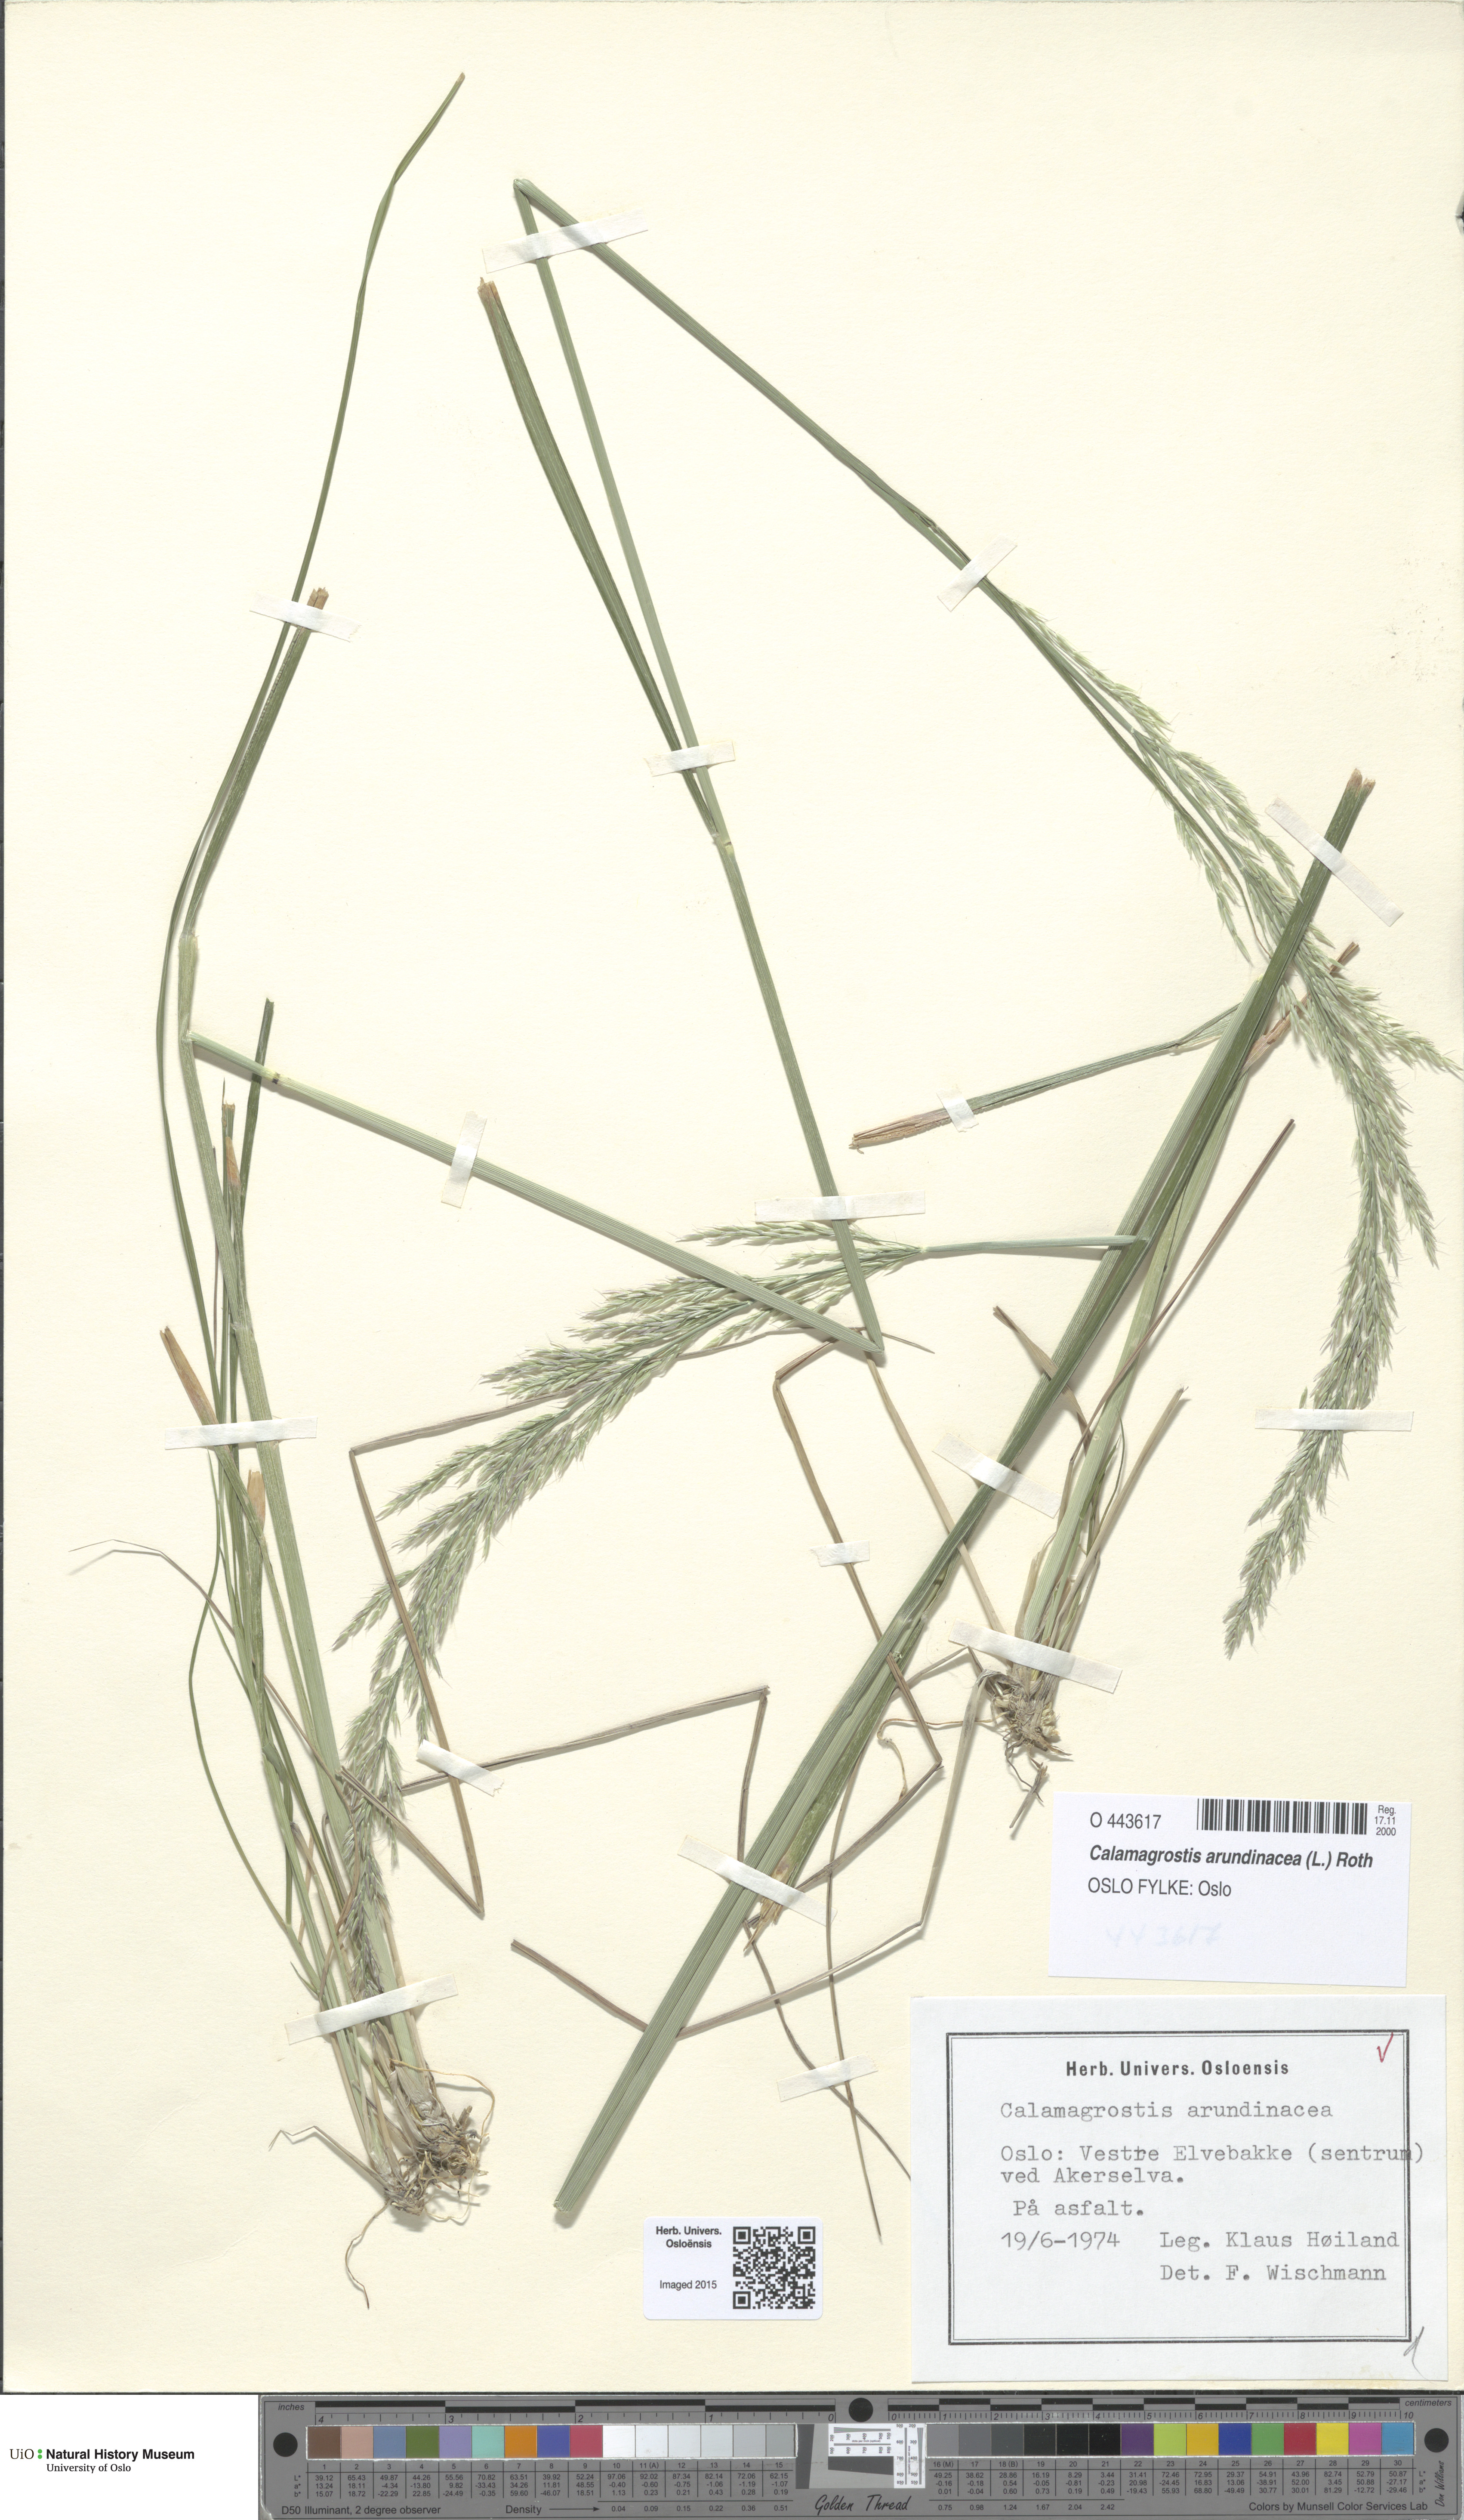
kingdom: Plantae
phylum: Tracheophyta
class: Liliopsida
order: Poales
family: Poaceae
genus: Calamagrostis
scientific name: Calamagrostis arundinacea
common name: Metskastik
